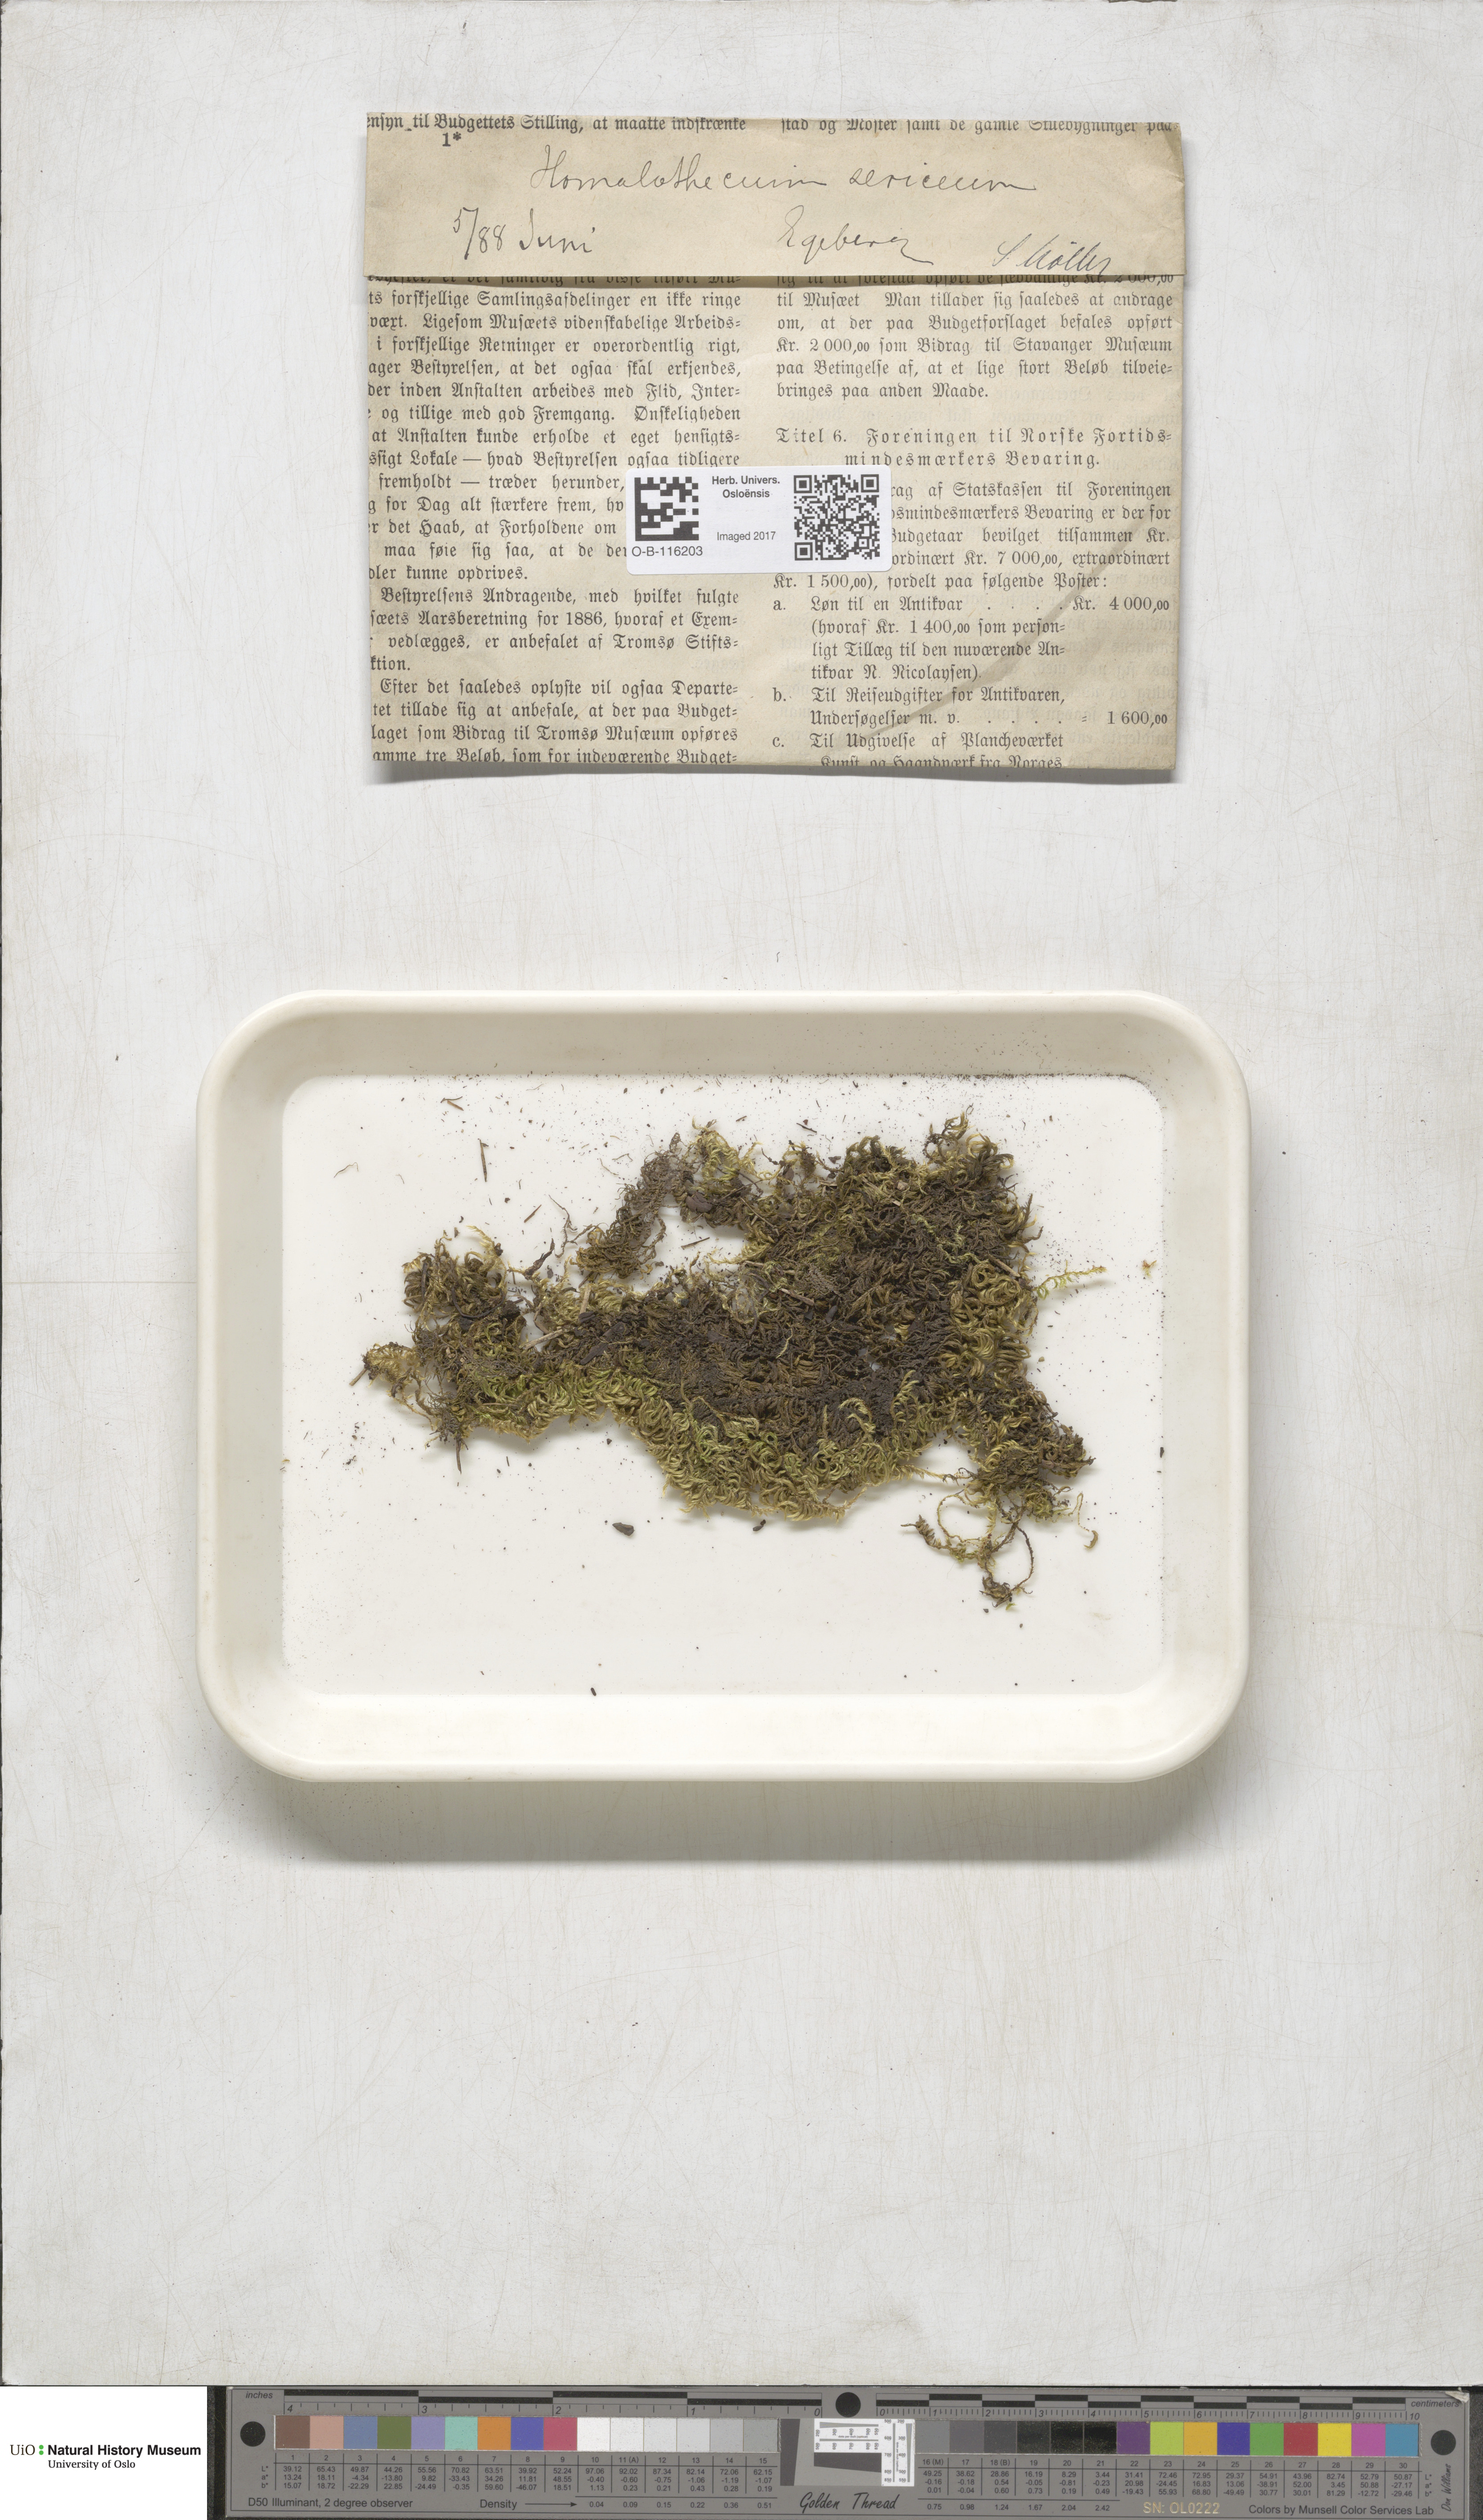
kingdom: Plantae
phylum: Bryophyta
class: Bryopsida
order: Hypnales
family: Brachytheciaceae
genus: Homalothecium
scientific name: Homalothecium sericeum
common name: Silky wall feather-moss
